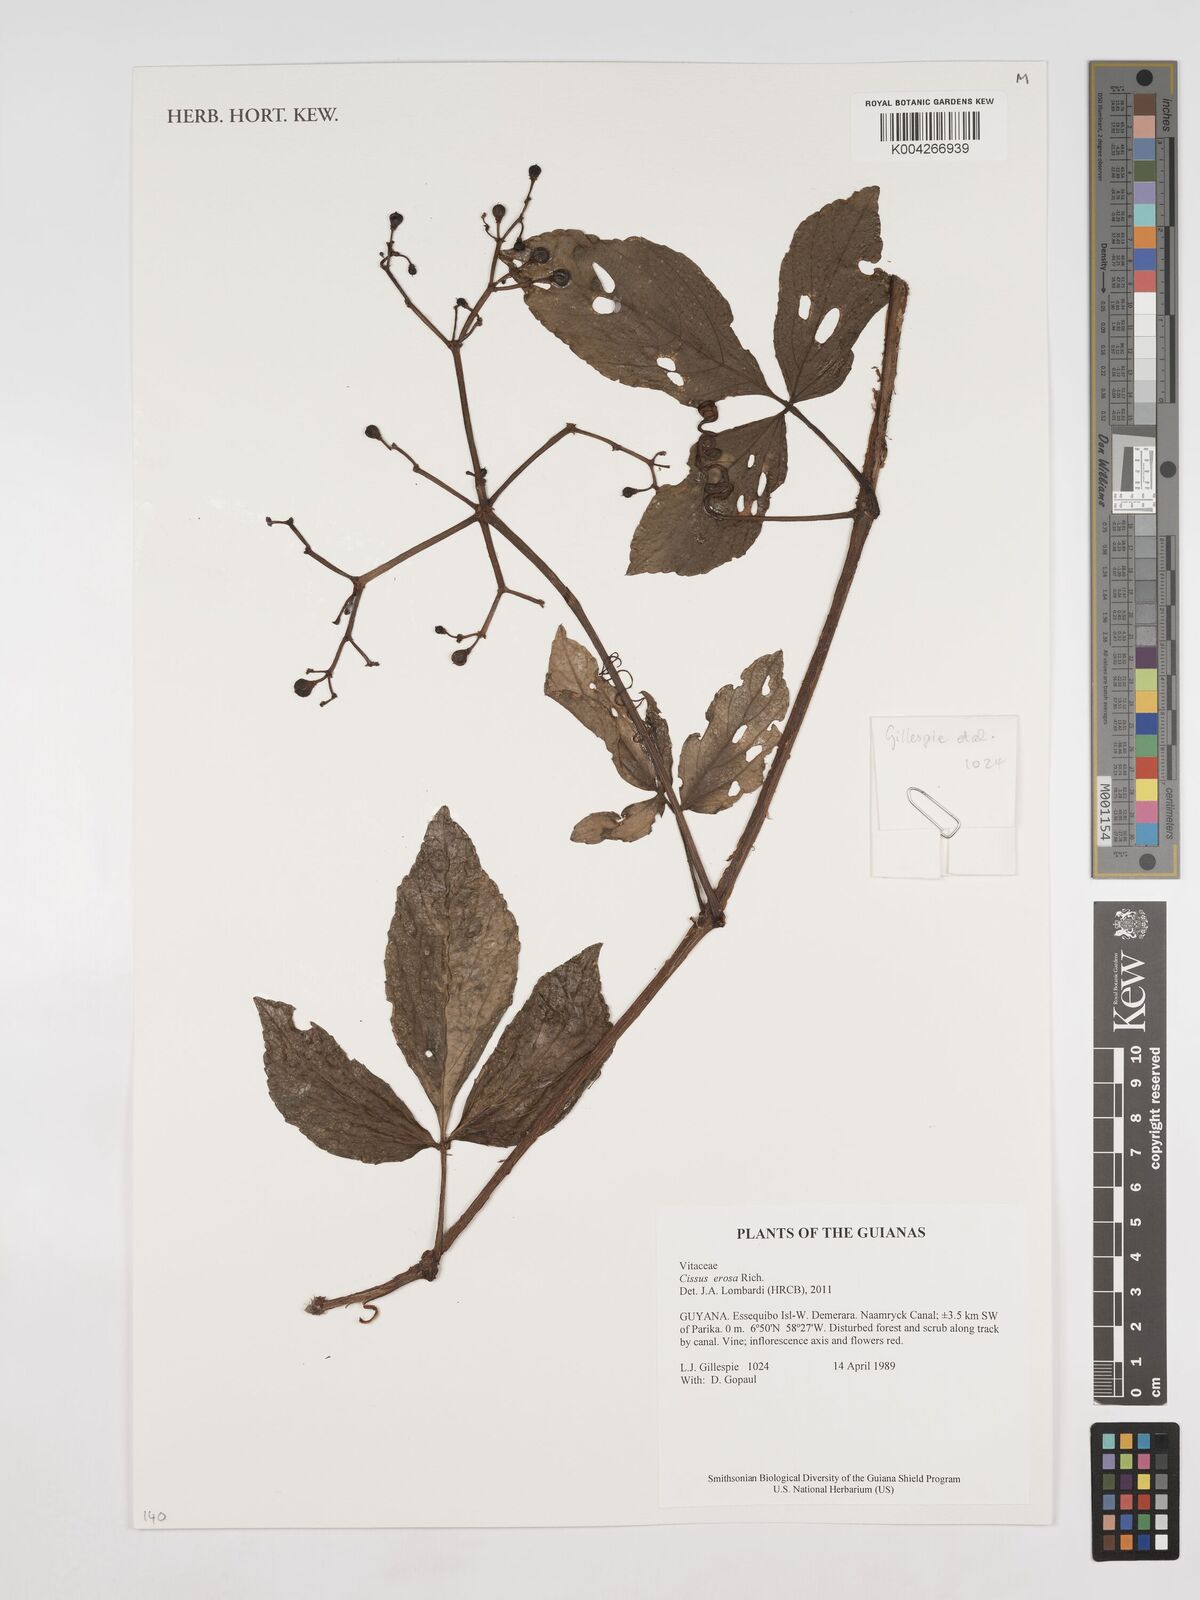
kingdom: Plantae
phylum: Tracheophyta
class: Magnoliopsida
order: Vitales
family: Vitaceae
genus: Cissus
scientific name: Cissus erosa
